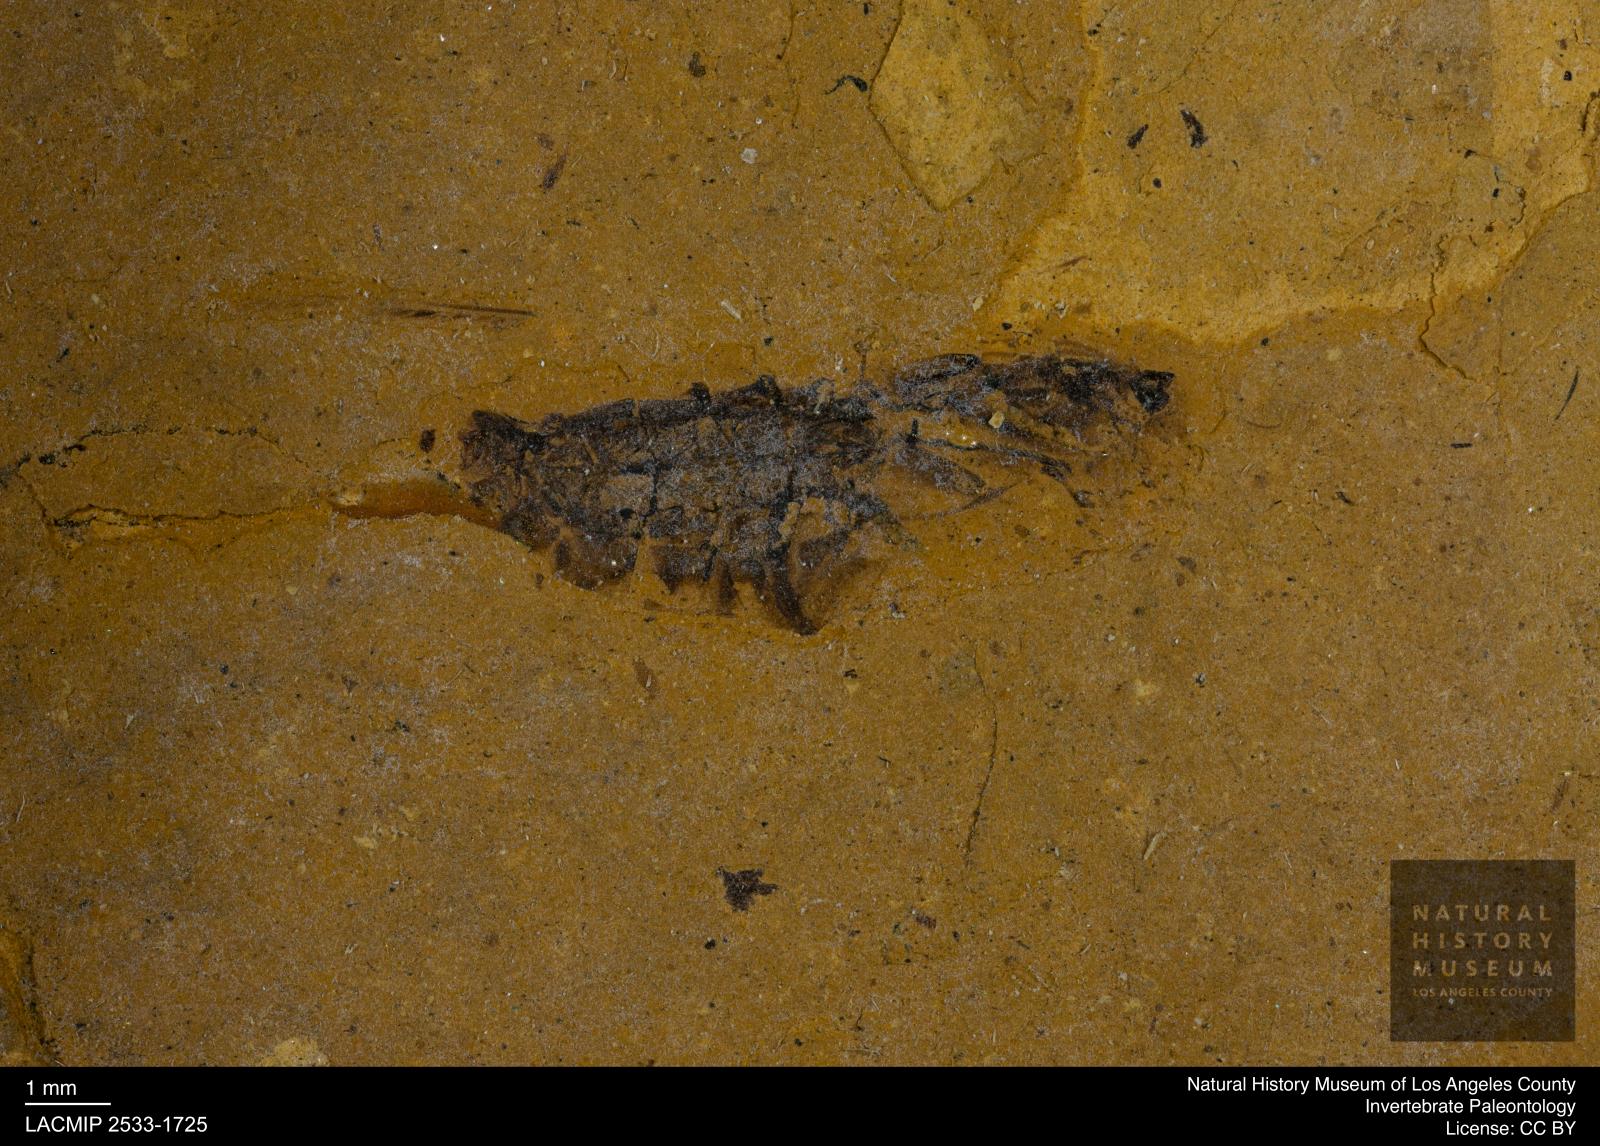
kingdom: Animalia
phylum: Arthropoda
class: Insecta
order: Hemiptera
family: Notonectidae
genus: Notonecta
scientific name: Notonecta
